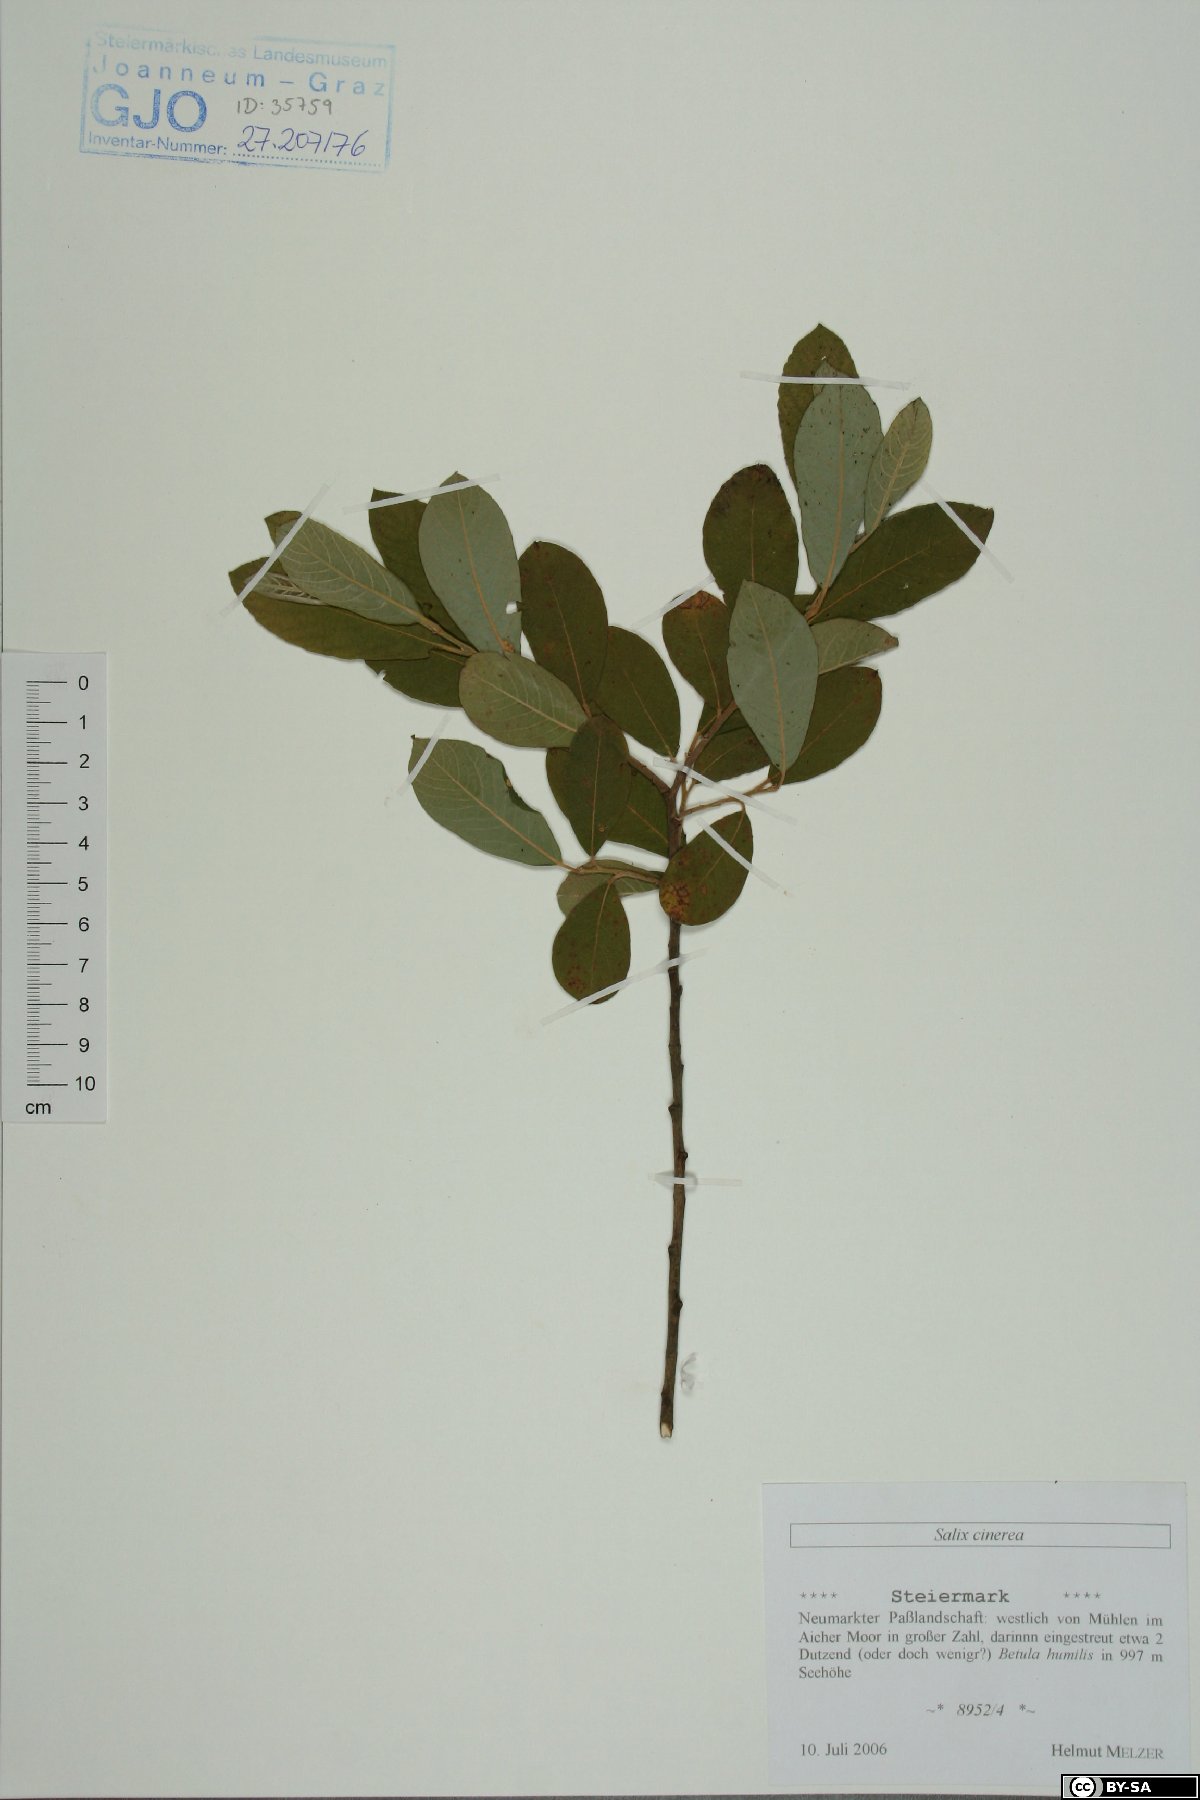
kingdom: Plantae
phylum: Tracheophyta
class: Magnoliopsida
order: Malpighiales
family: Salicaceae
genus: Salix
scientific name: Salix cinerea
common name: Common sallow
